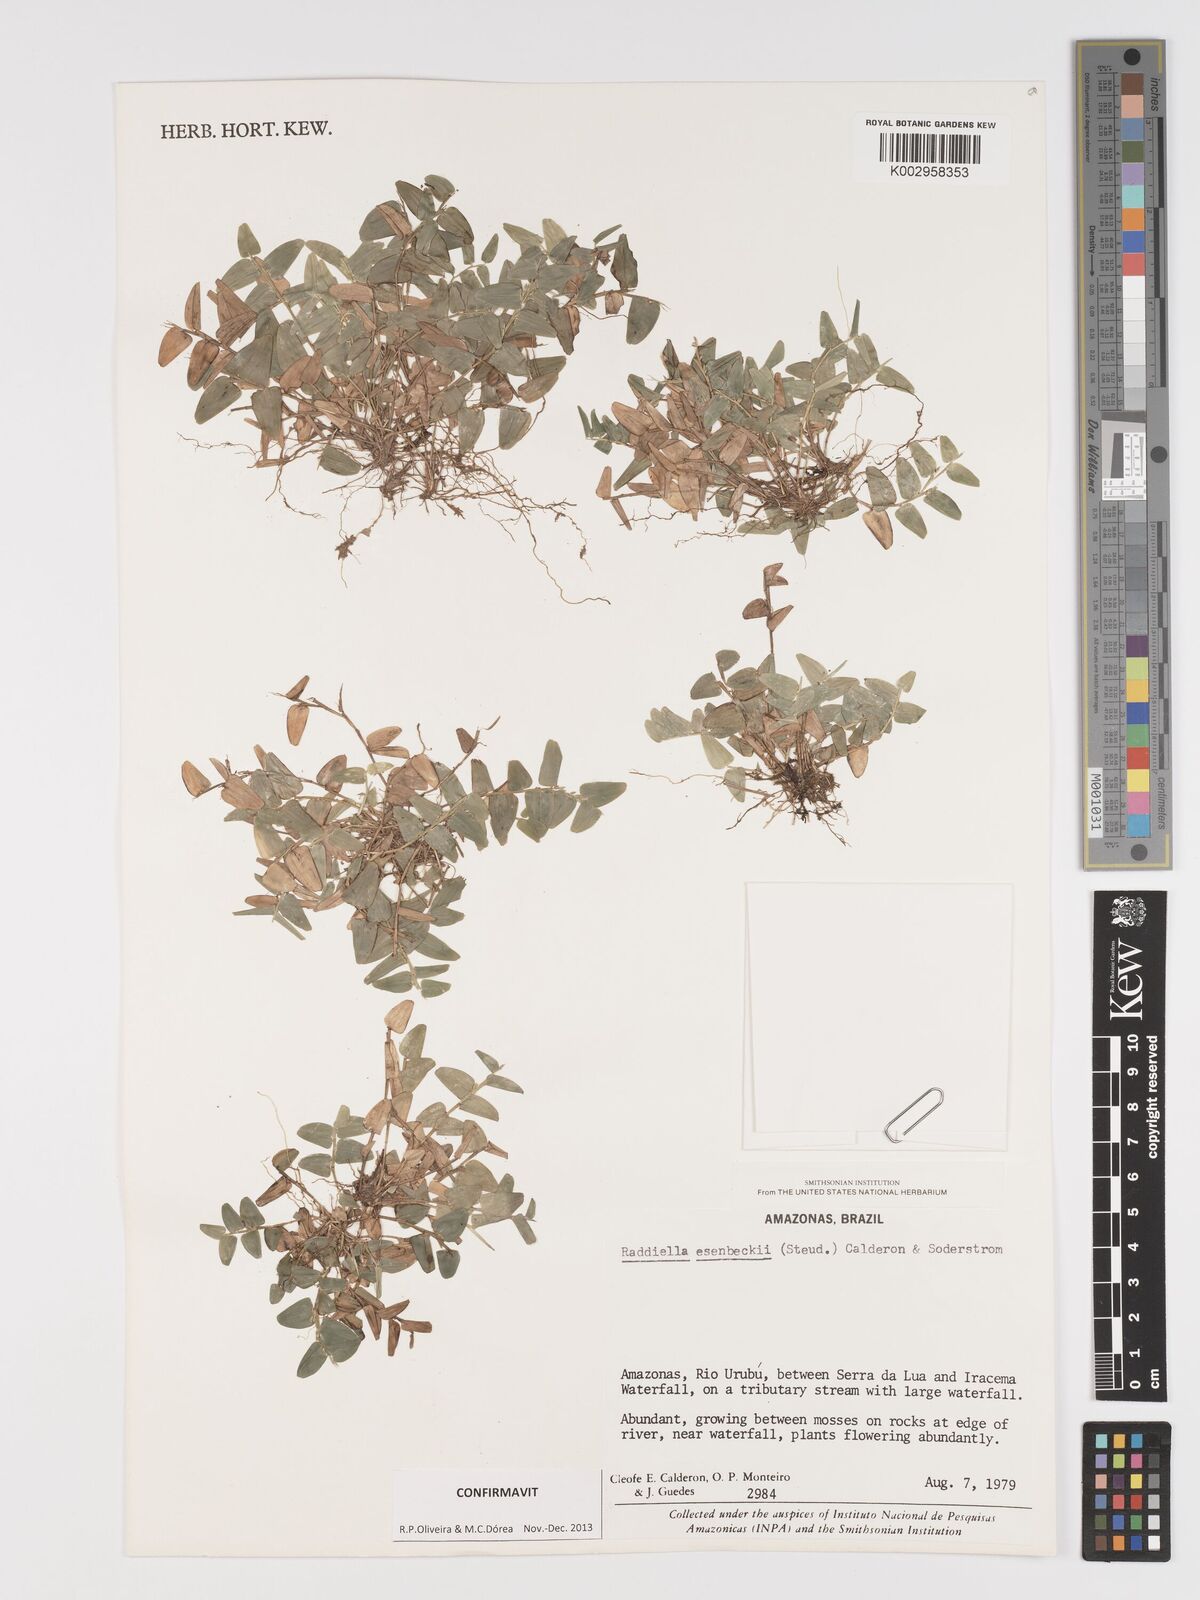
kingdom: Plantae
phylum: Tracheophyta
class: Liliopsida
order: Poales
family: Poaceae
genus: Raddiella
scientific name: Raddiella esenbeckii
